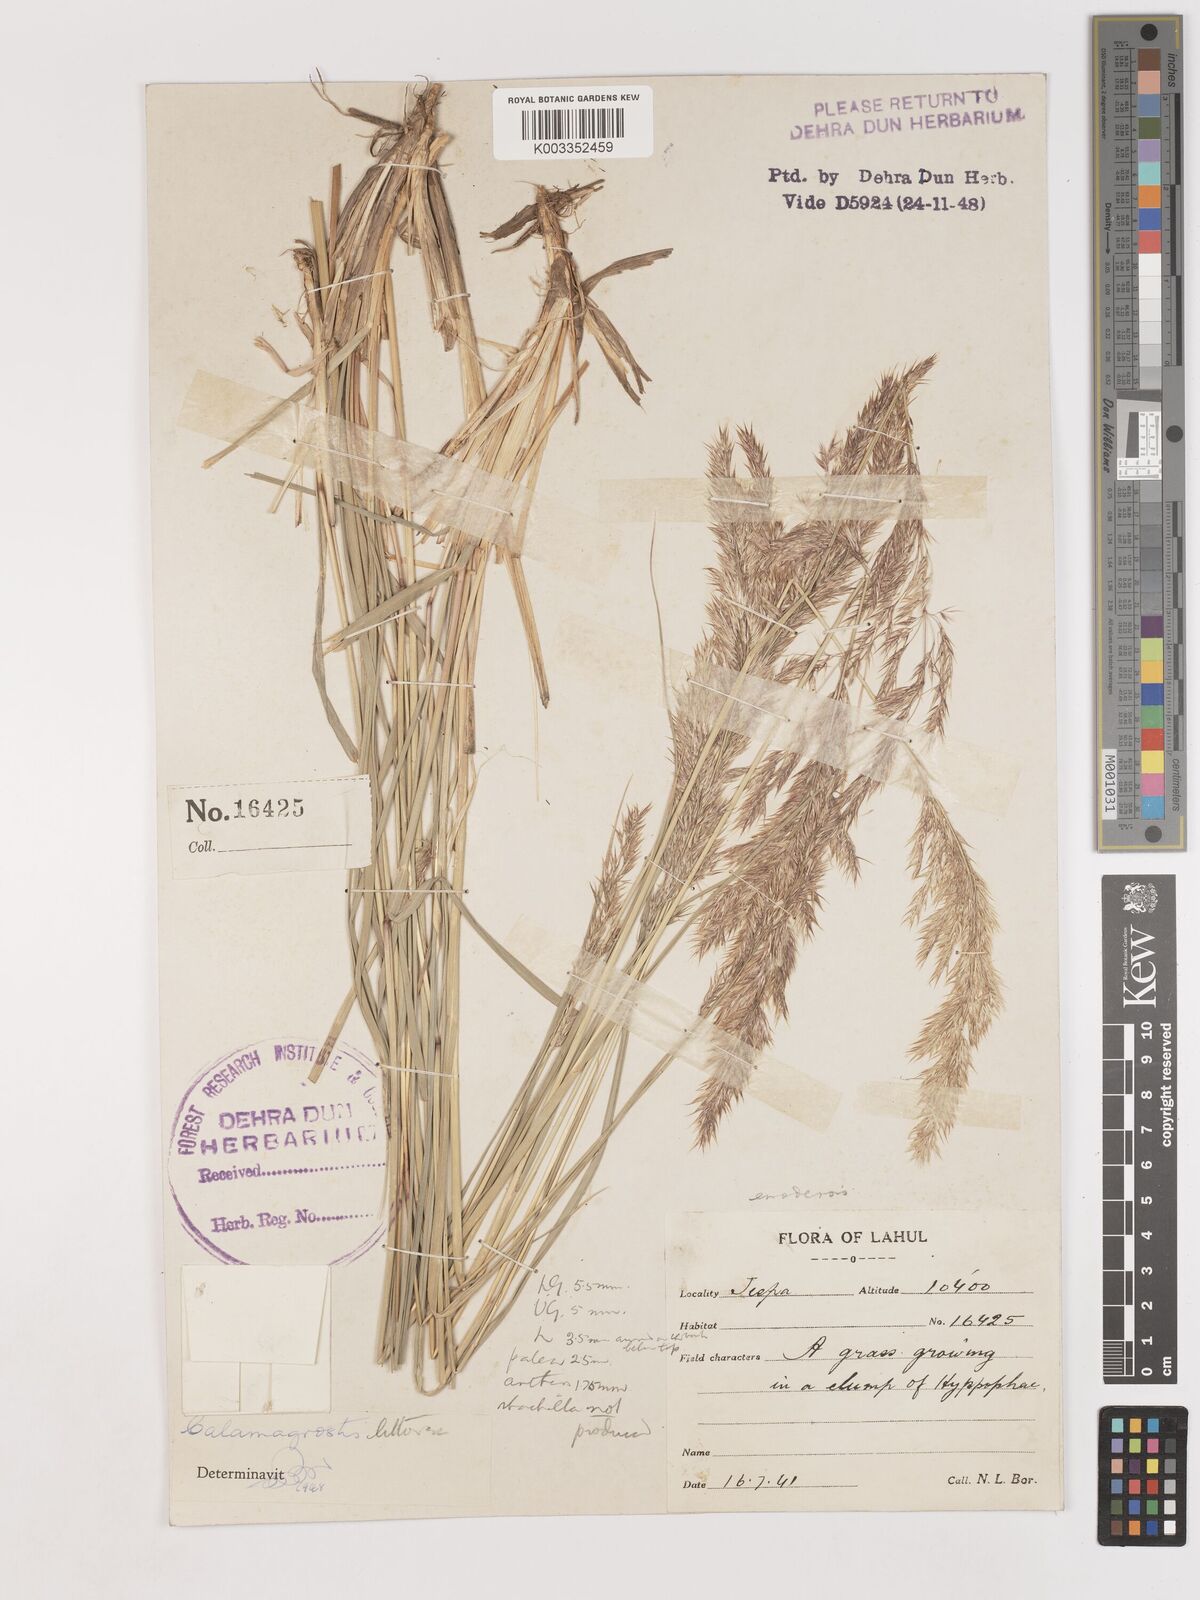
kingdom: Plantae
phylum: Tracheophyta
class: Liliopsida
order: Poales
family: Poaceae
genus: Calamagrostis
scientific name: Calamagrostis pseudophragmites
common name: Coastal small-reed
